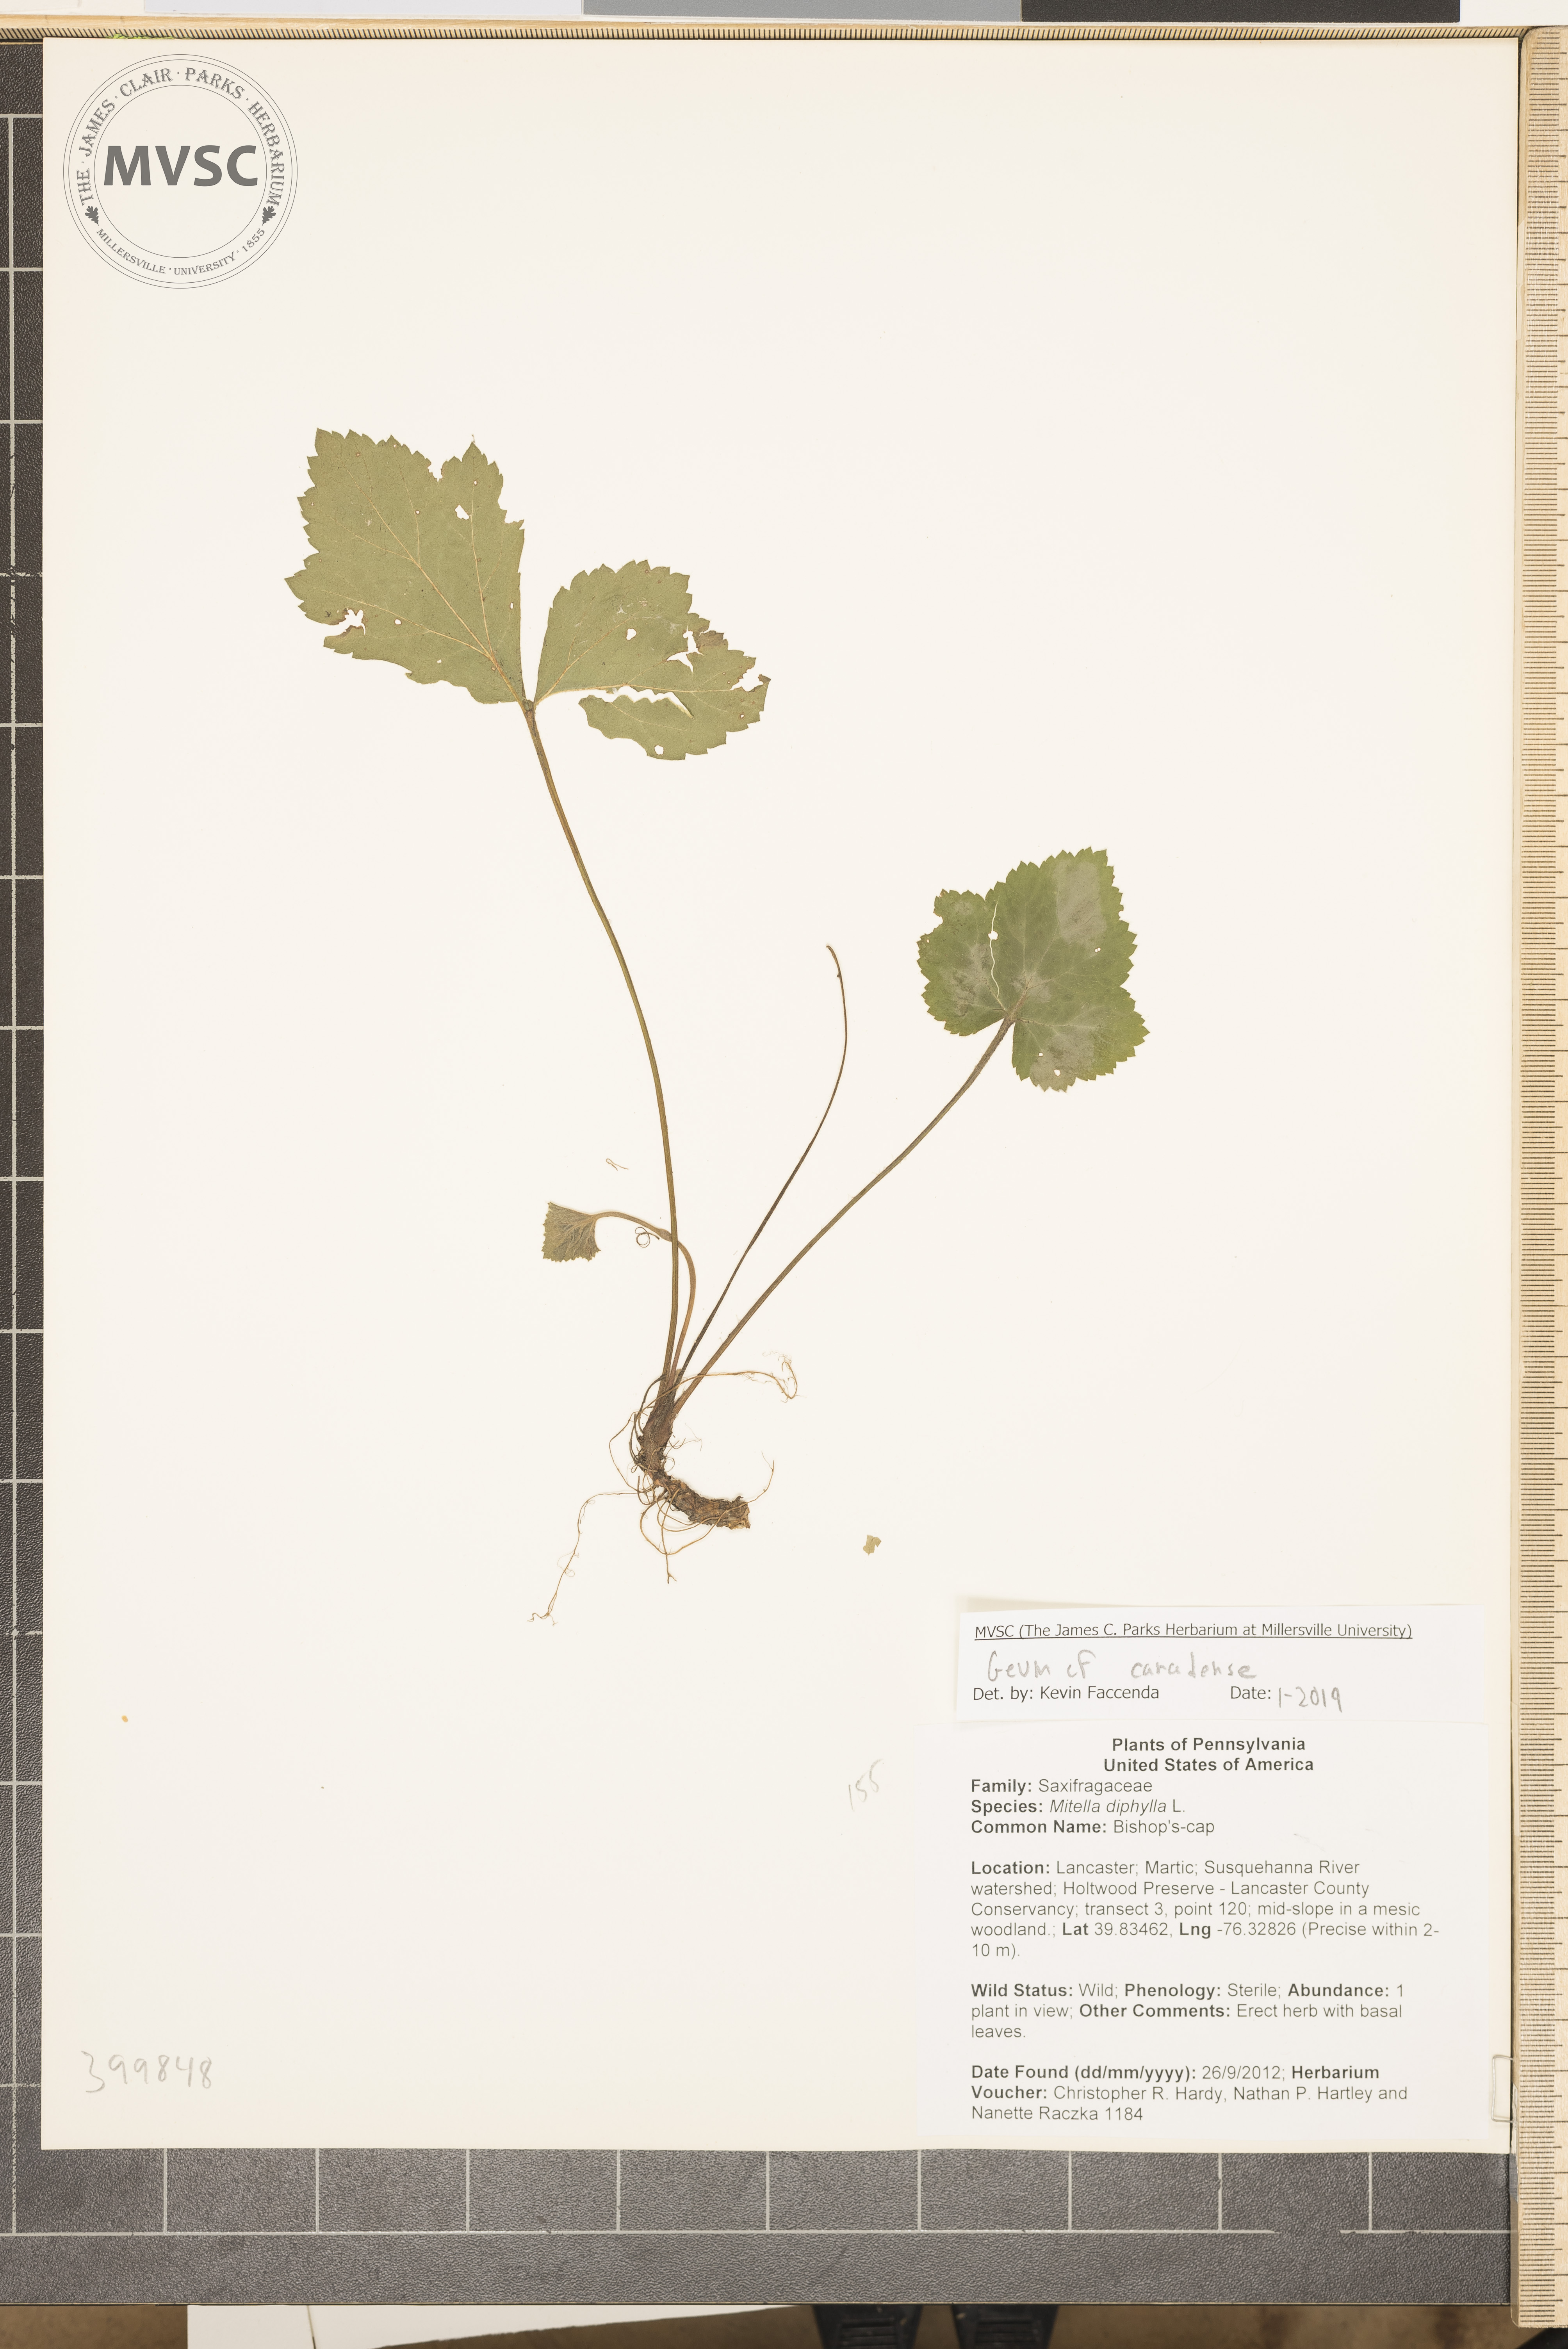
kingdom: Plantae
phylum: Tracheophyta
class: Magnoliopsida
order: Rosales
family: Rosaceae
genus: Geum
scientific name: Geum canadense
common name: White avens
